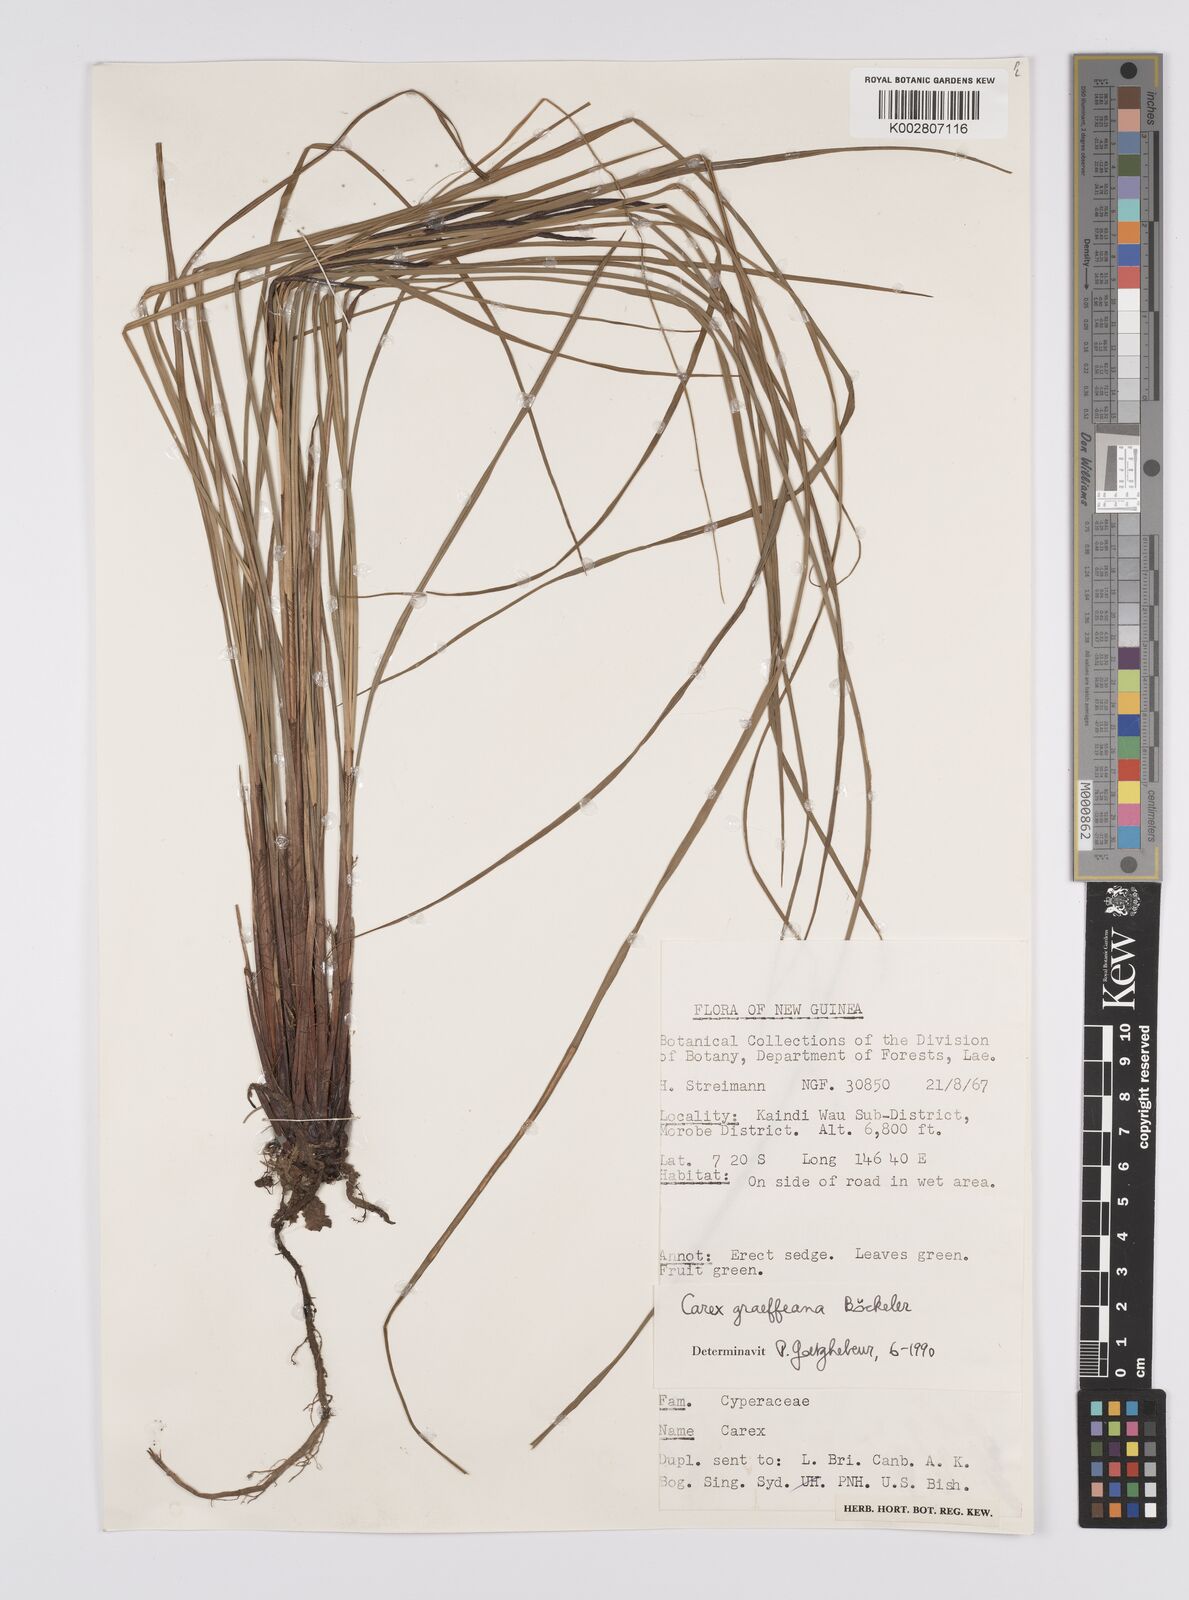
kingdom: Plantae
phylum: Tracheophyta
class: Liliopsida
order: Poales
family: Cyperaceae
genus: Carex
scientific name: Carex graeffeana
